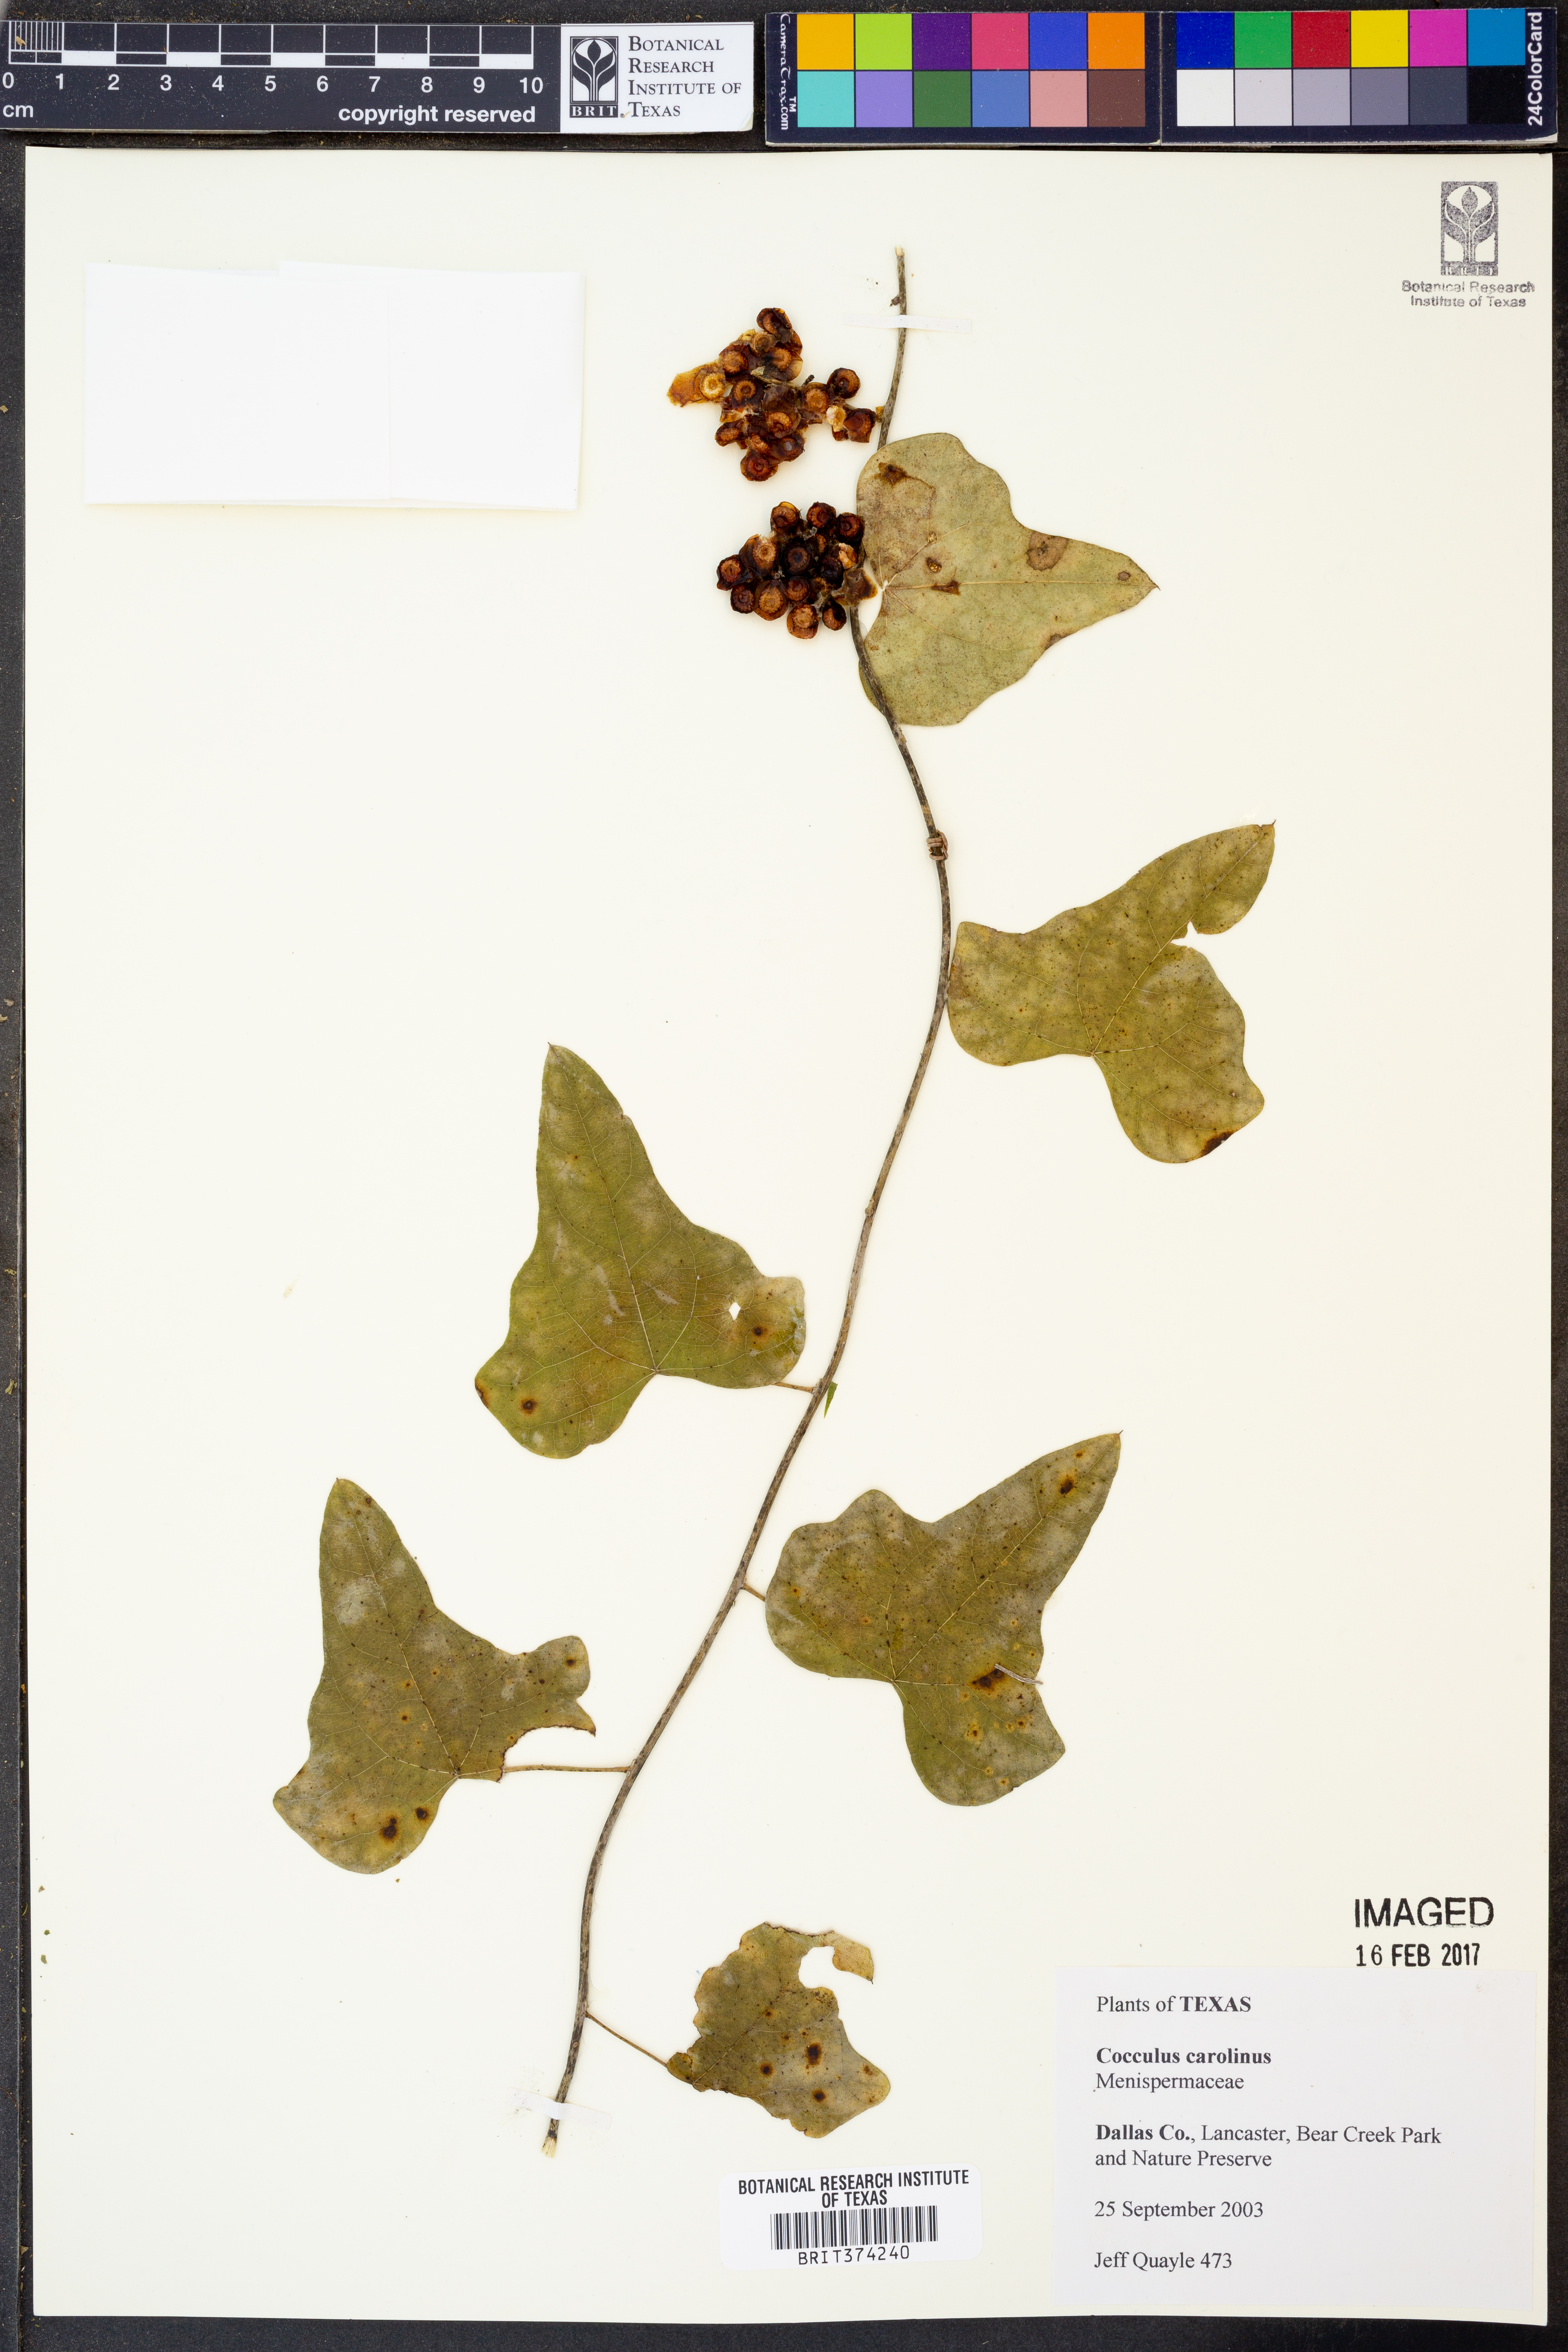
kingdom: Plantae
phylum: Tracheophyta
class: Magnoliopsida
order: Ranunculales
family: Menispermaceae
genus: Cocculus
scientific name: Cocculus carolinus
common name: Carolina moonseed
